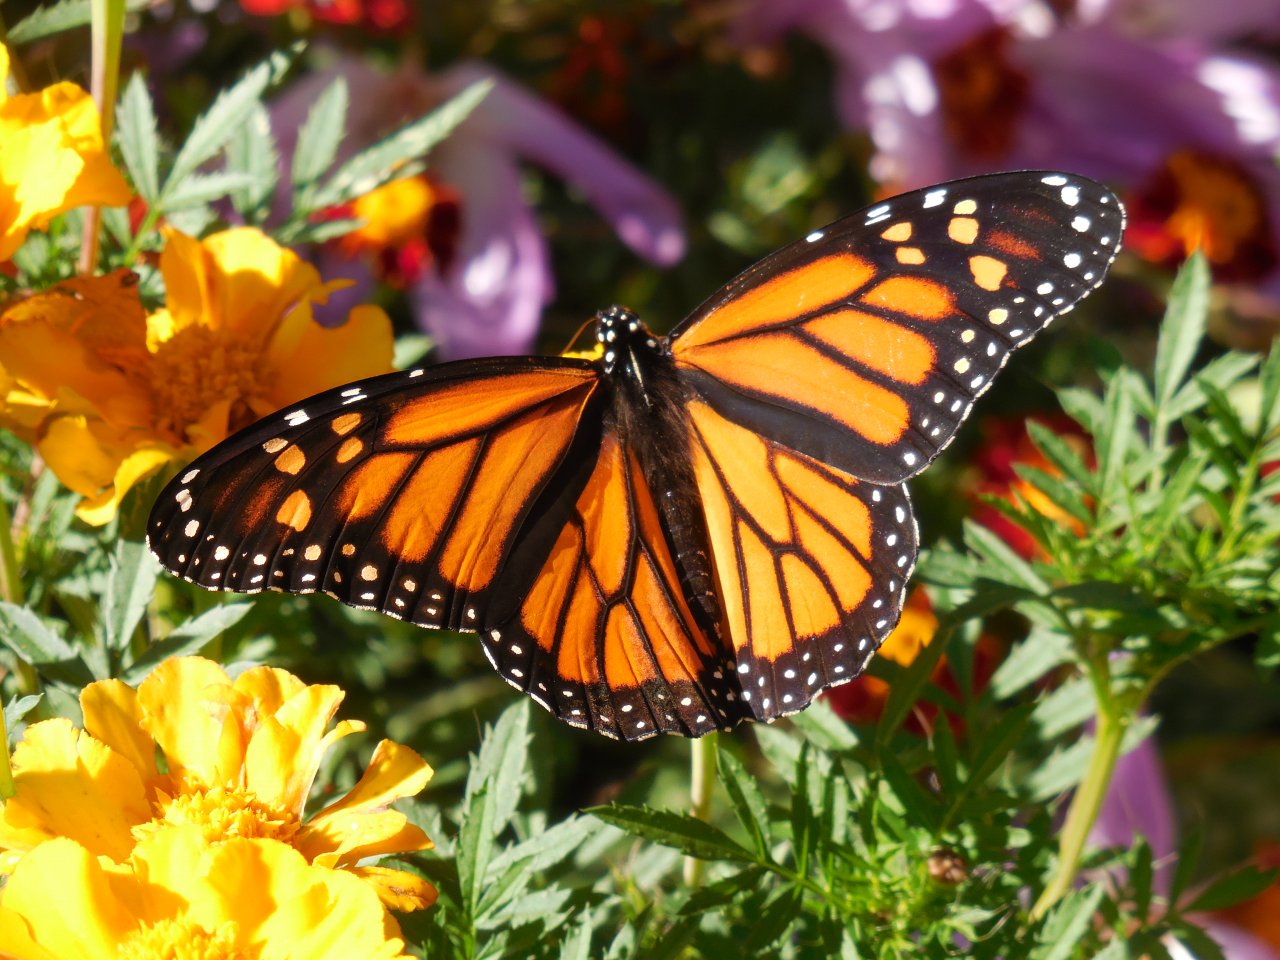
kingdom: Animalia
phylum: Arthropoda
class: Insecta
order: Lepidoptera
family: Nymphalidae
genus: Danaus
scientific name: Danaus plexippus
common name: Monarch
